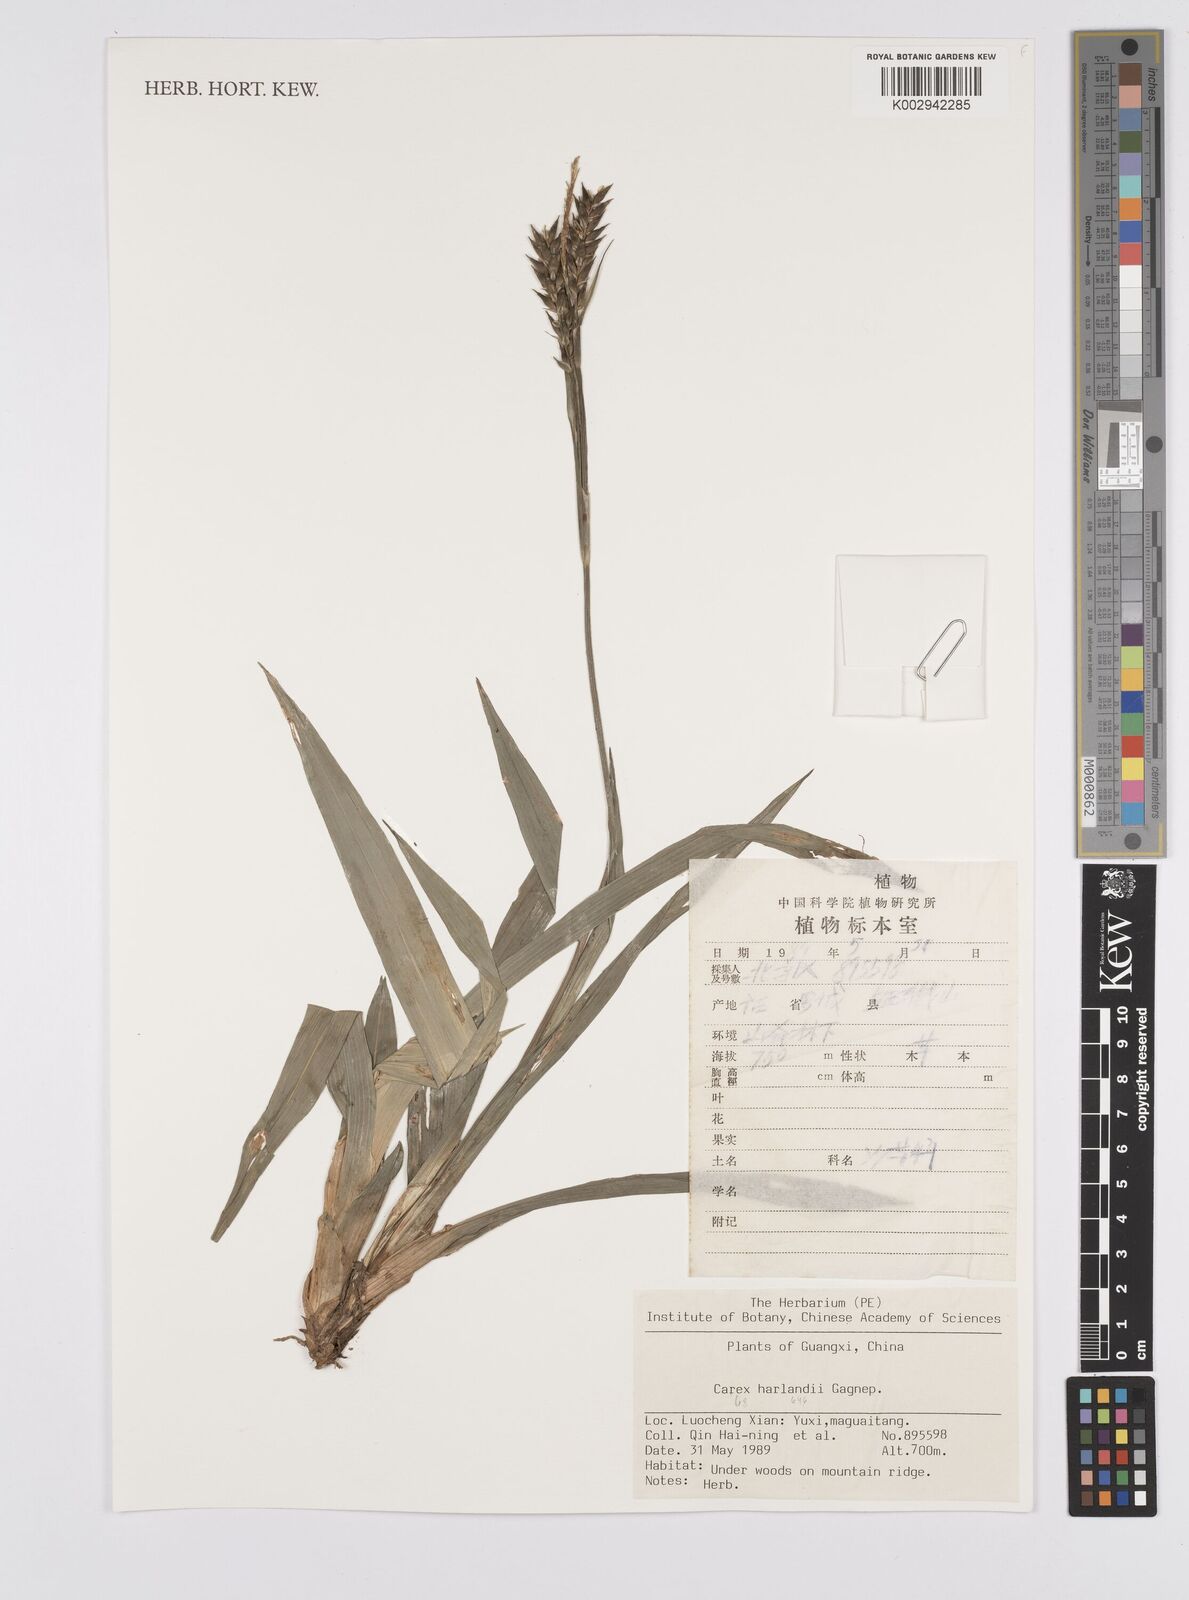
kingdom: Plantae
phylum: Tracheophyta
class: Liliopsida
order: Poales
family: Cyperaceae
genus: Carex
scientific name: Carex
